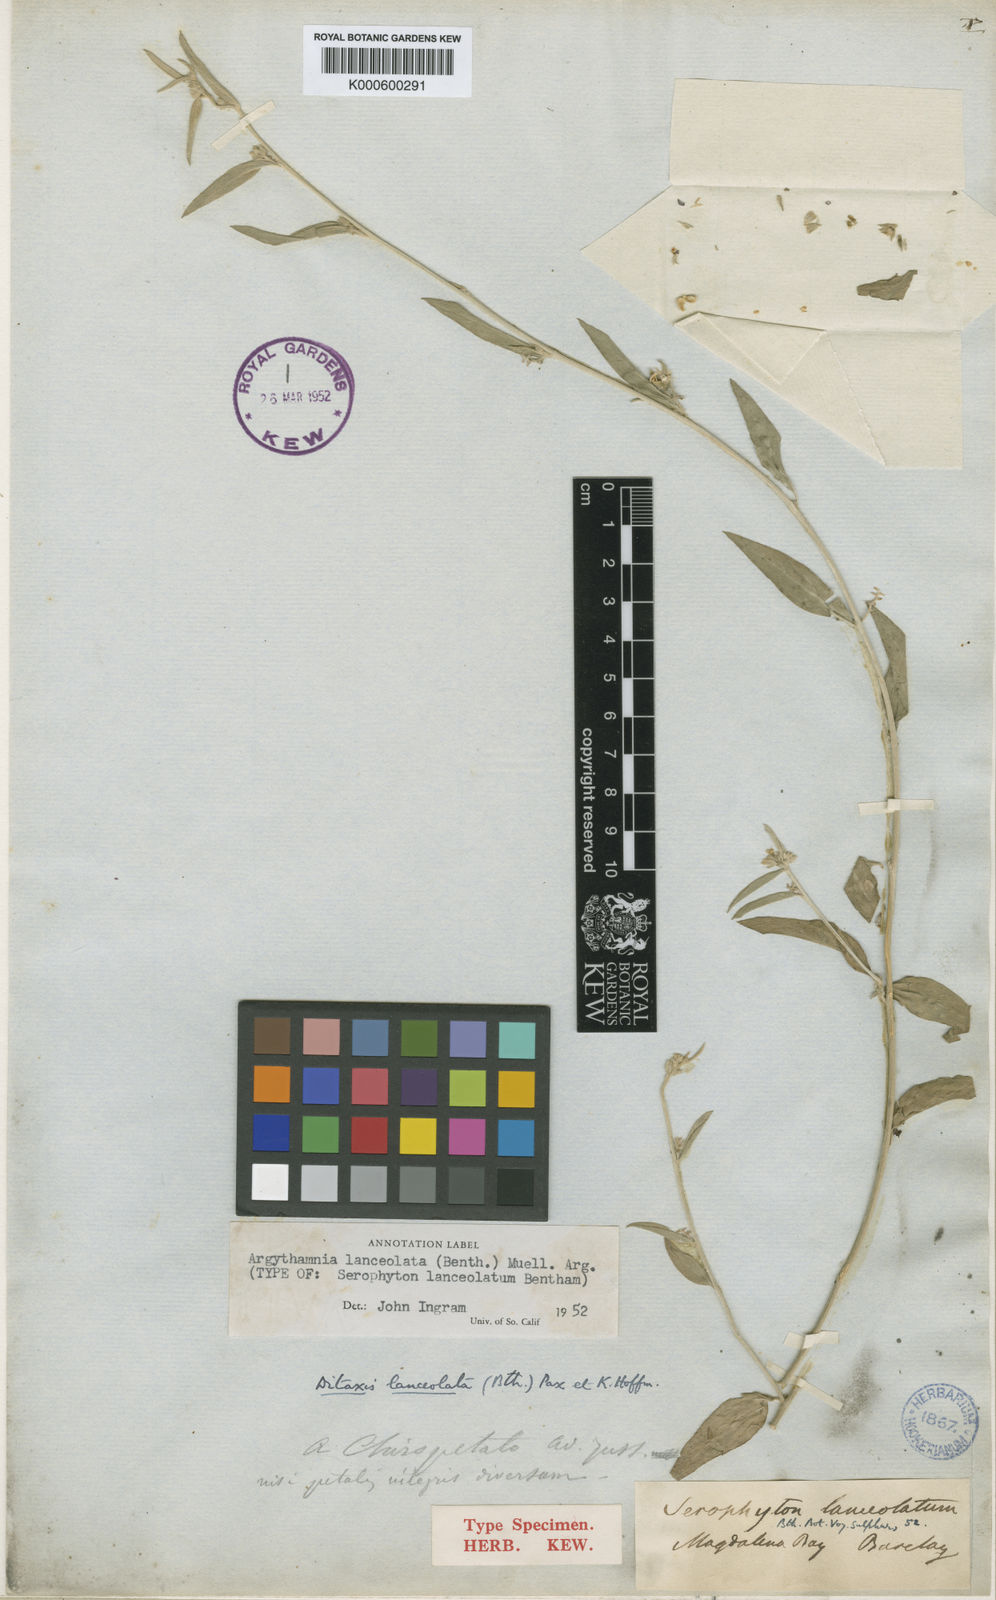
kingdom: Plantae
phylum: Tracheophyta
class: Magnoliopsida
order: Malpighiales
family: Euphorbiaceae
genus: Ditaxis
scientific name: Ditaxis lanceolata
